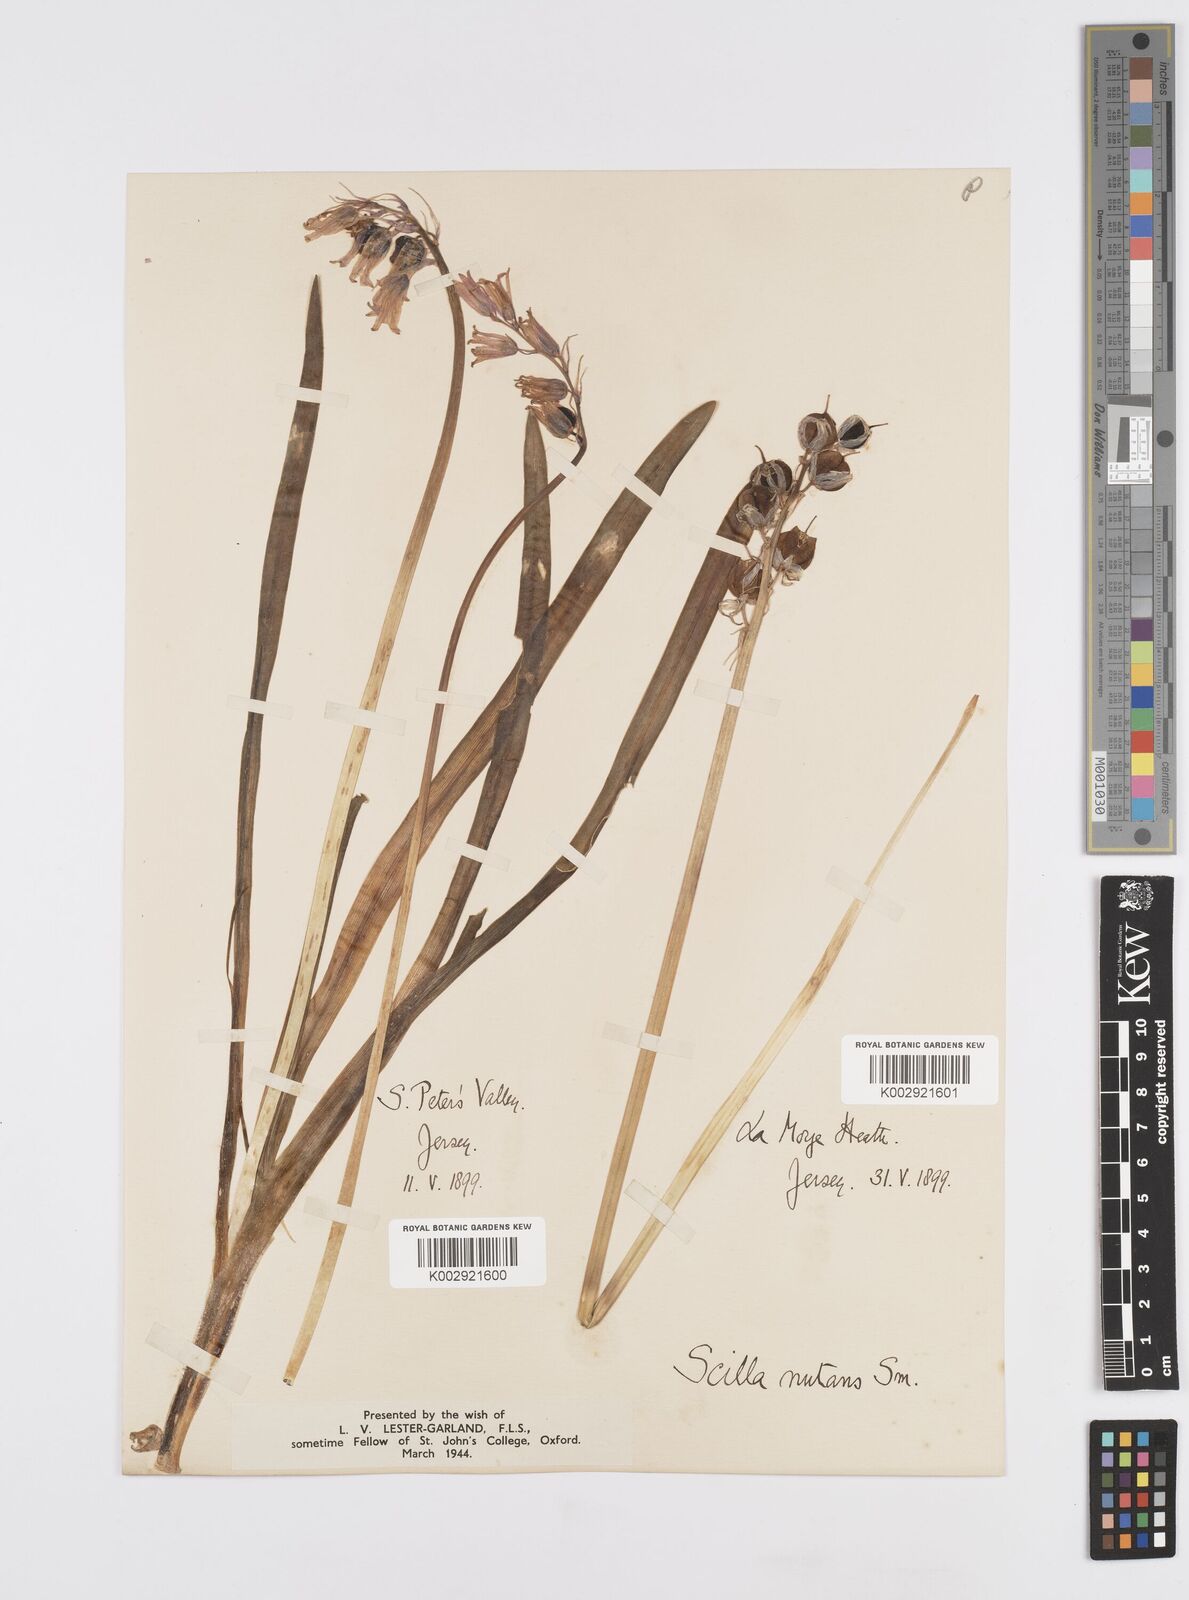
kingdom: Plantae
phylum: Tracheophyta
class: Liliopsida
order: Asparagales
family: Asparagaceae
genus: Hyacinthoides
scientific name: Hyacinthoides non-scripta
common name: Bluebell
